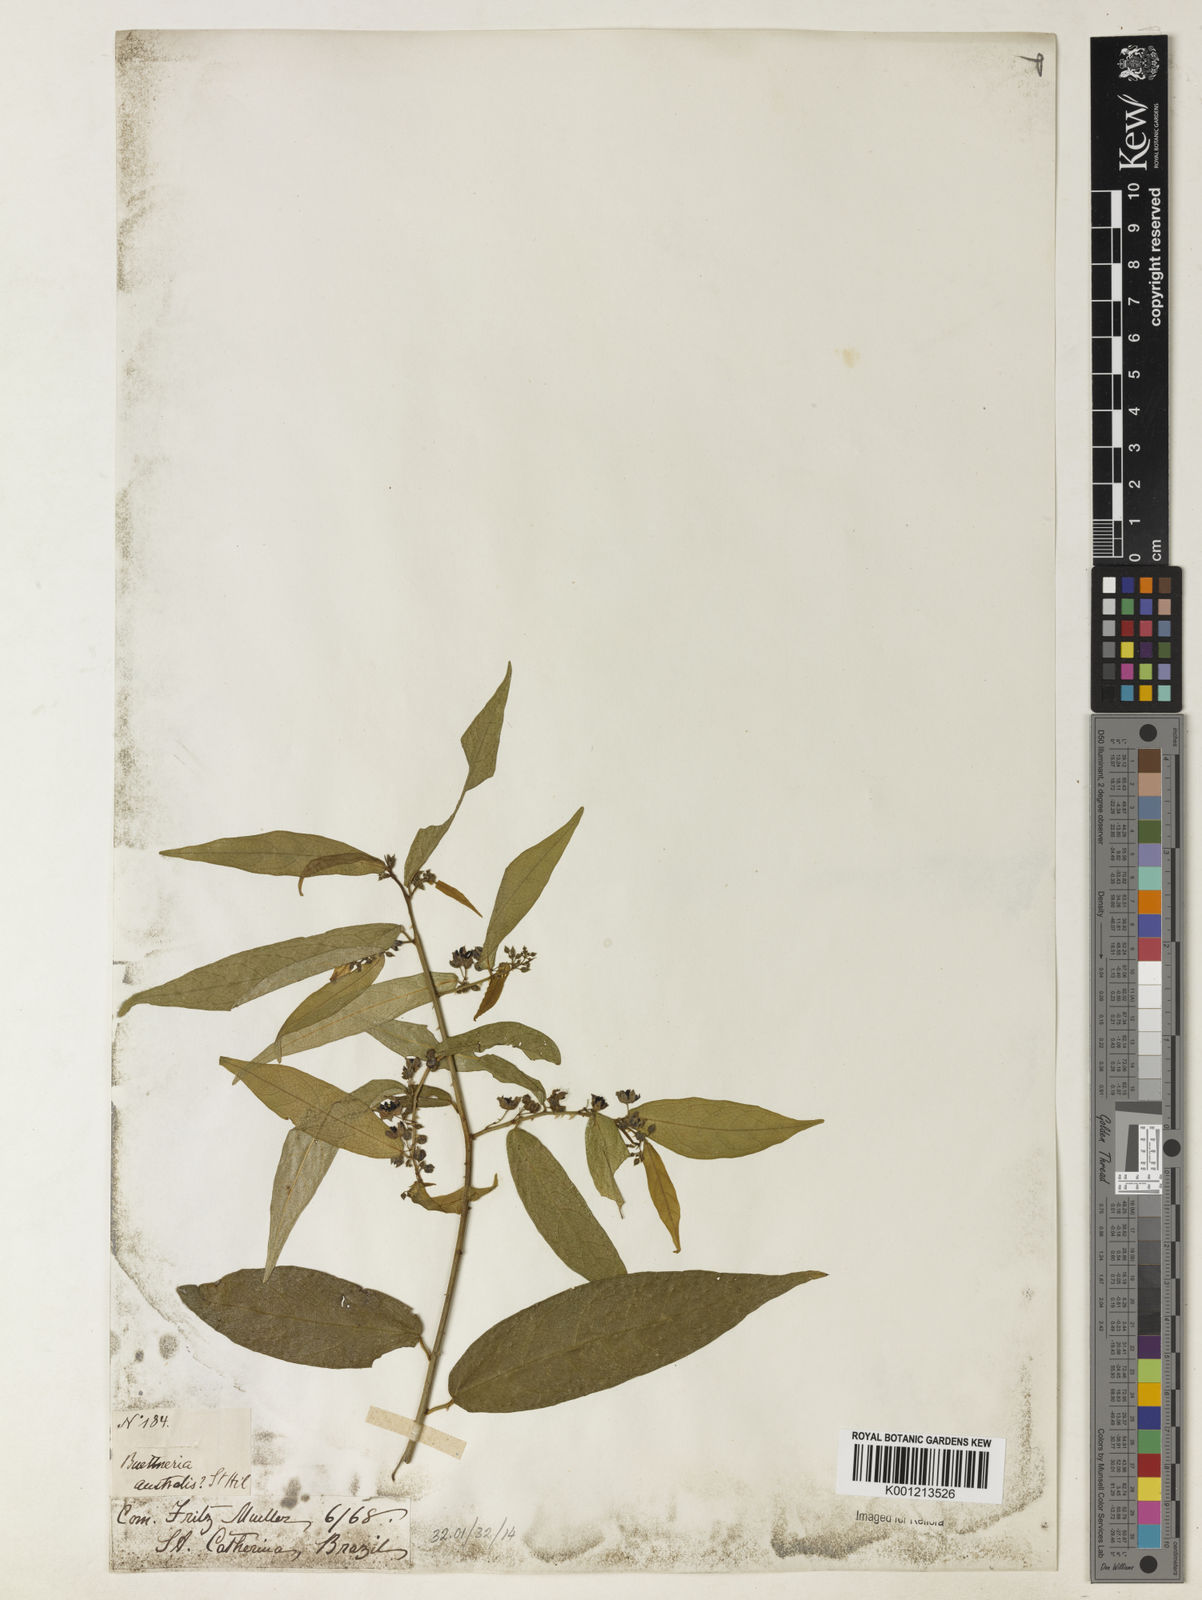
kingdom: Plantae
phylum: Tracheophyta
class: Magnoliopsida
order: Malvales
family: Malvaceae
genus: Byttneria
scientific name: Byttneria australis
